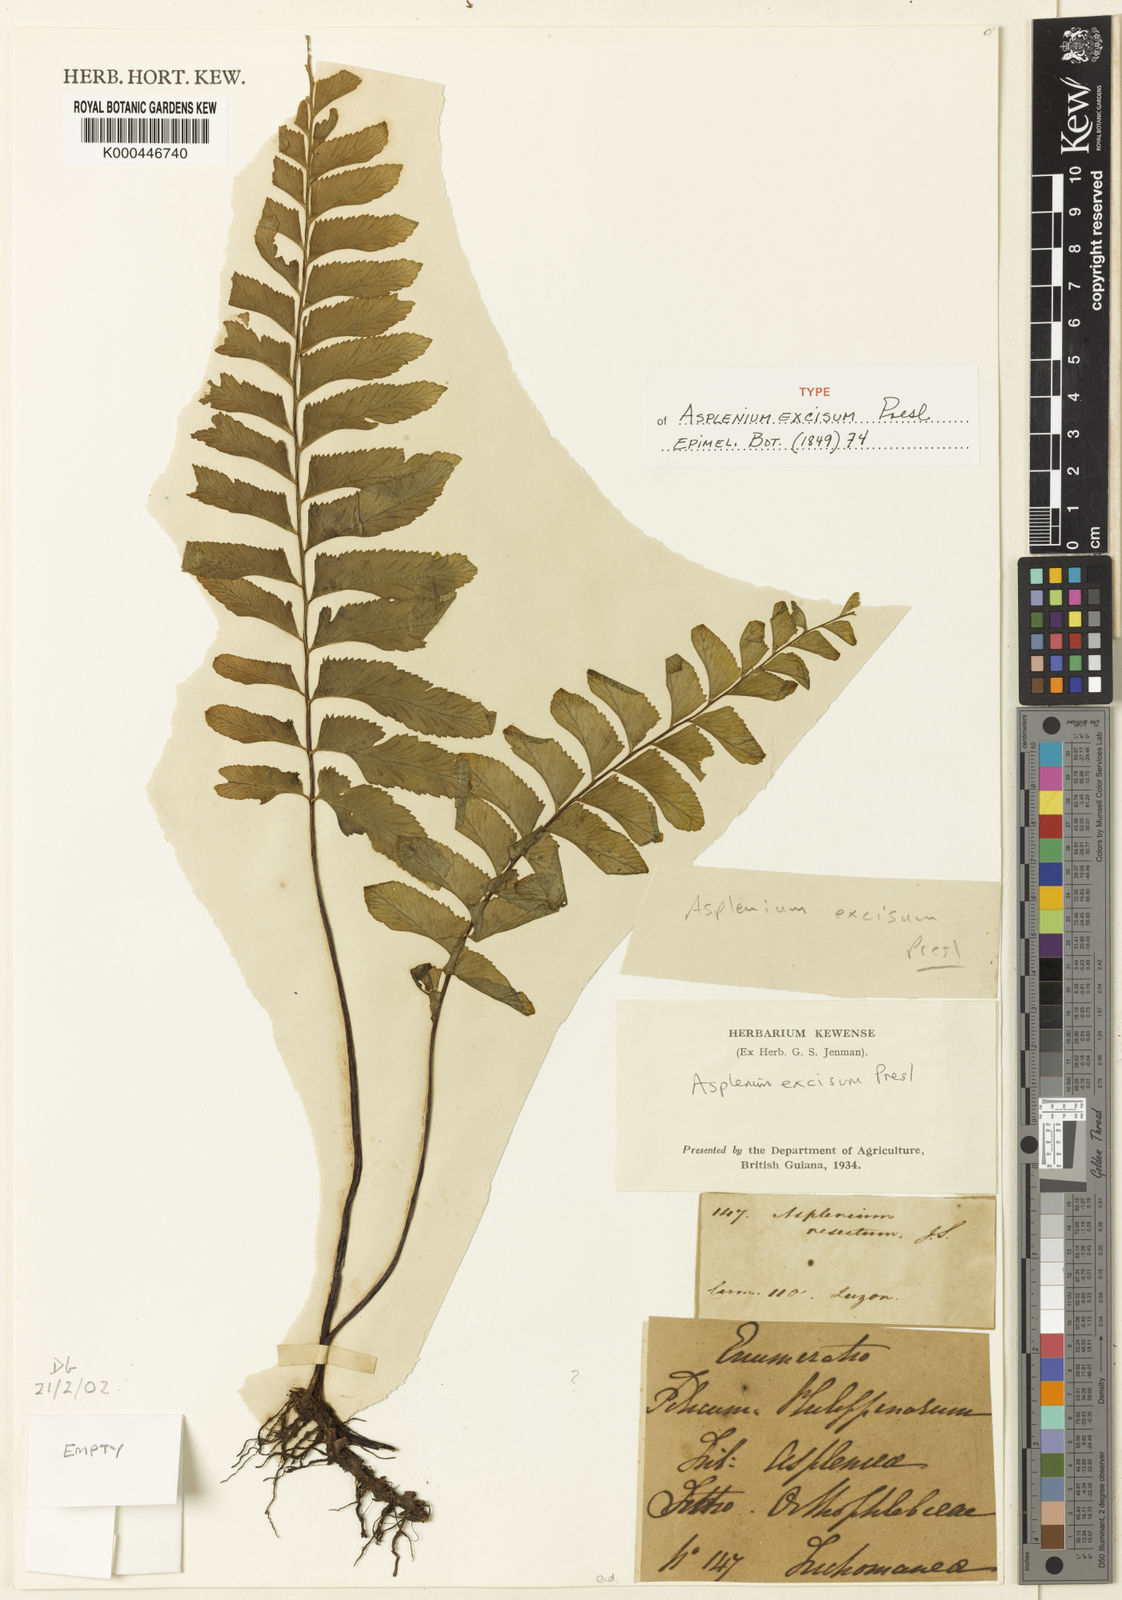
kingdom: Plantae
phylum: Tracheophyta
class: Polypodiopsida
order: Polypodiales
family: Aspleniaceae
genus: Hymenasplenium
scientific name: Hymenasplenium excisum
